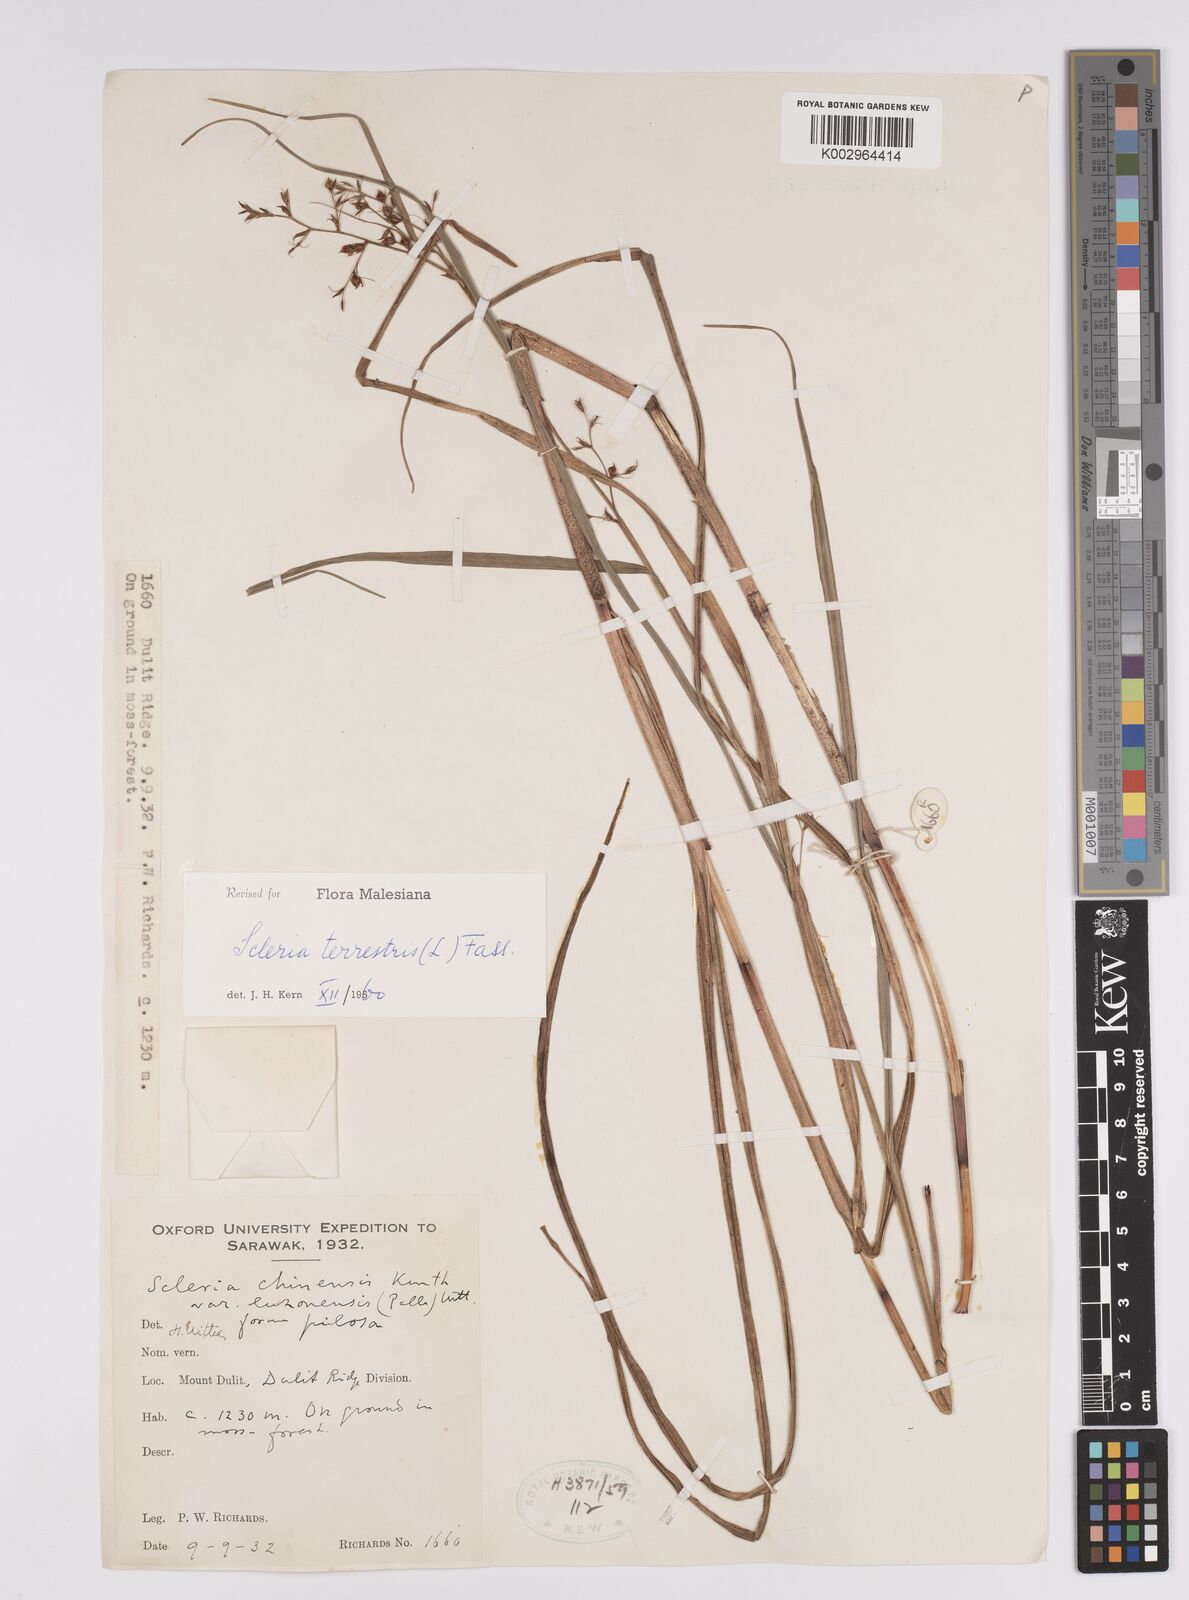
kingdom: Plantae
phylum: Tracheophyta
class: Liliopsida
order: Poales
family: Cyperaceae
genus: Scleria
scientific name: Scleria terrestris
